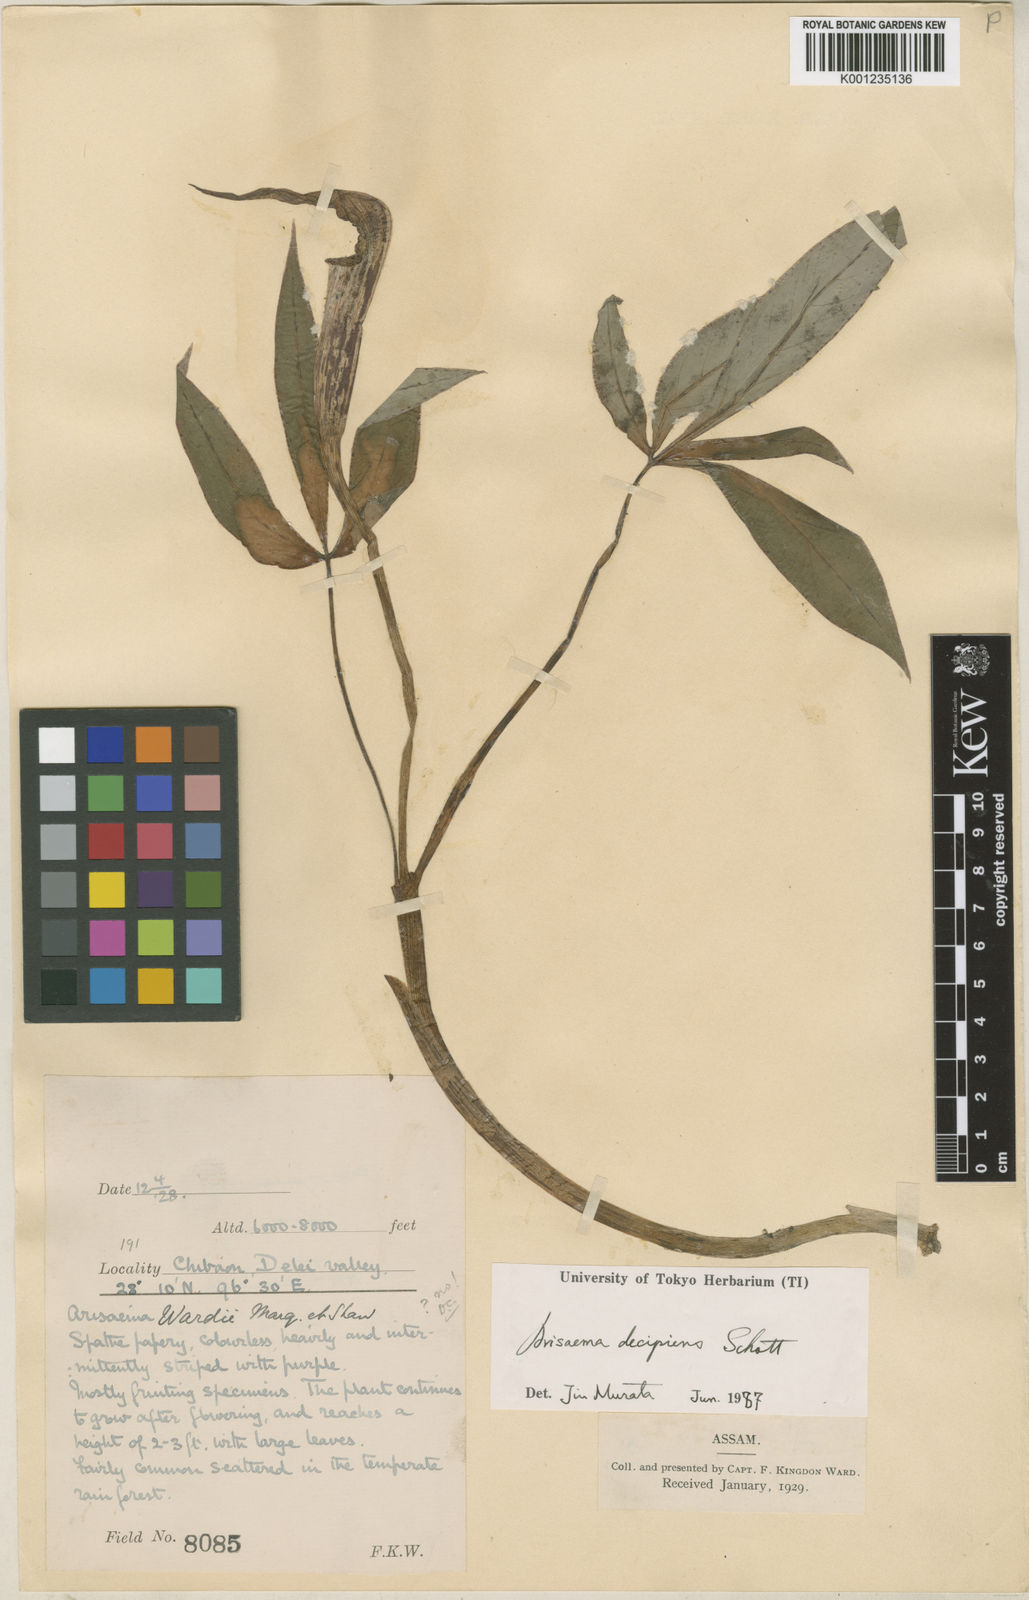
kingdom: Plantae
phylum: Tracheophyta
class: Liliopsida
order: Alismatales
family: Araceae
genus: Arisaema
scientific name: Arisaema decipiens
